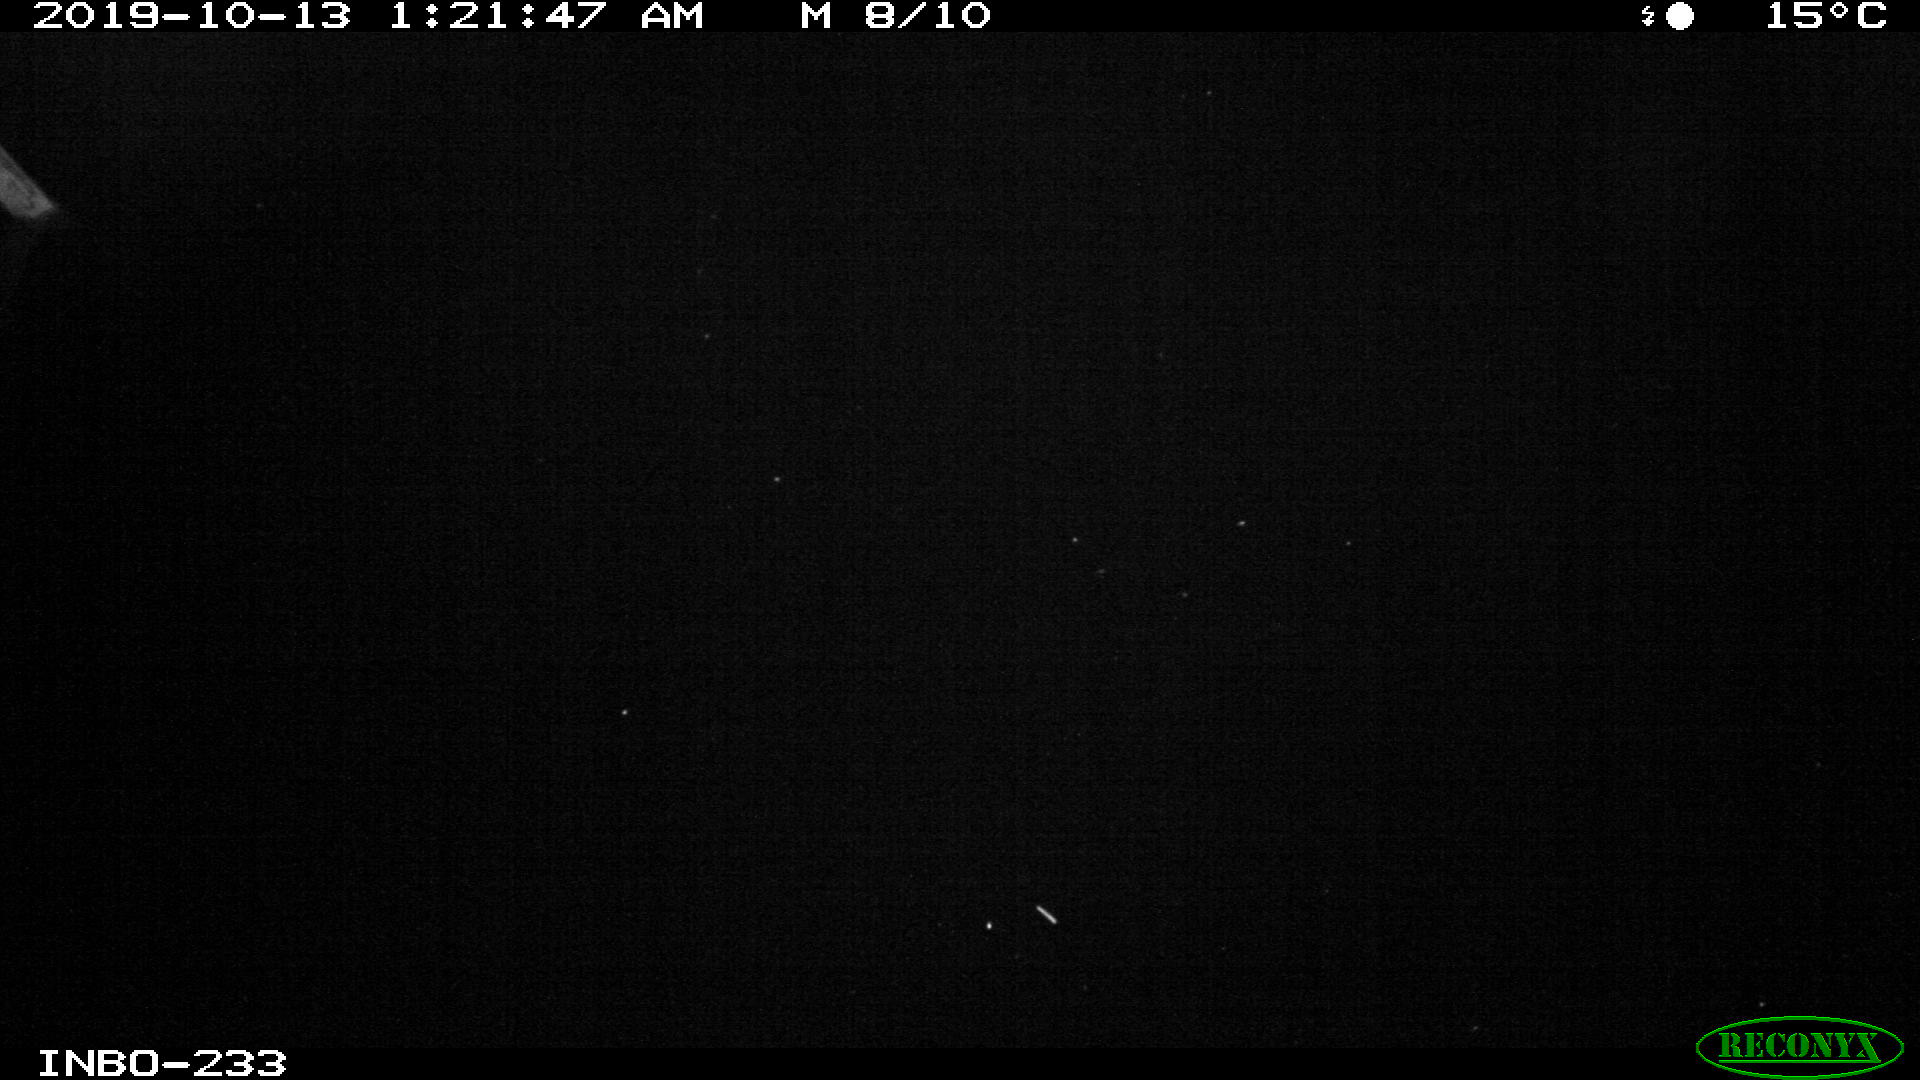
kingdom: Animalia
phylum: Chordata
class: Aves
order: Anseriformes
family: Anatidae
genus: Anas
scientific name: Anas platyrhynchos
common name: Mallard
